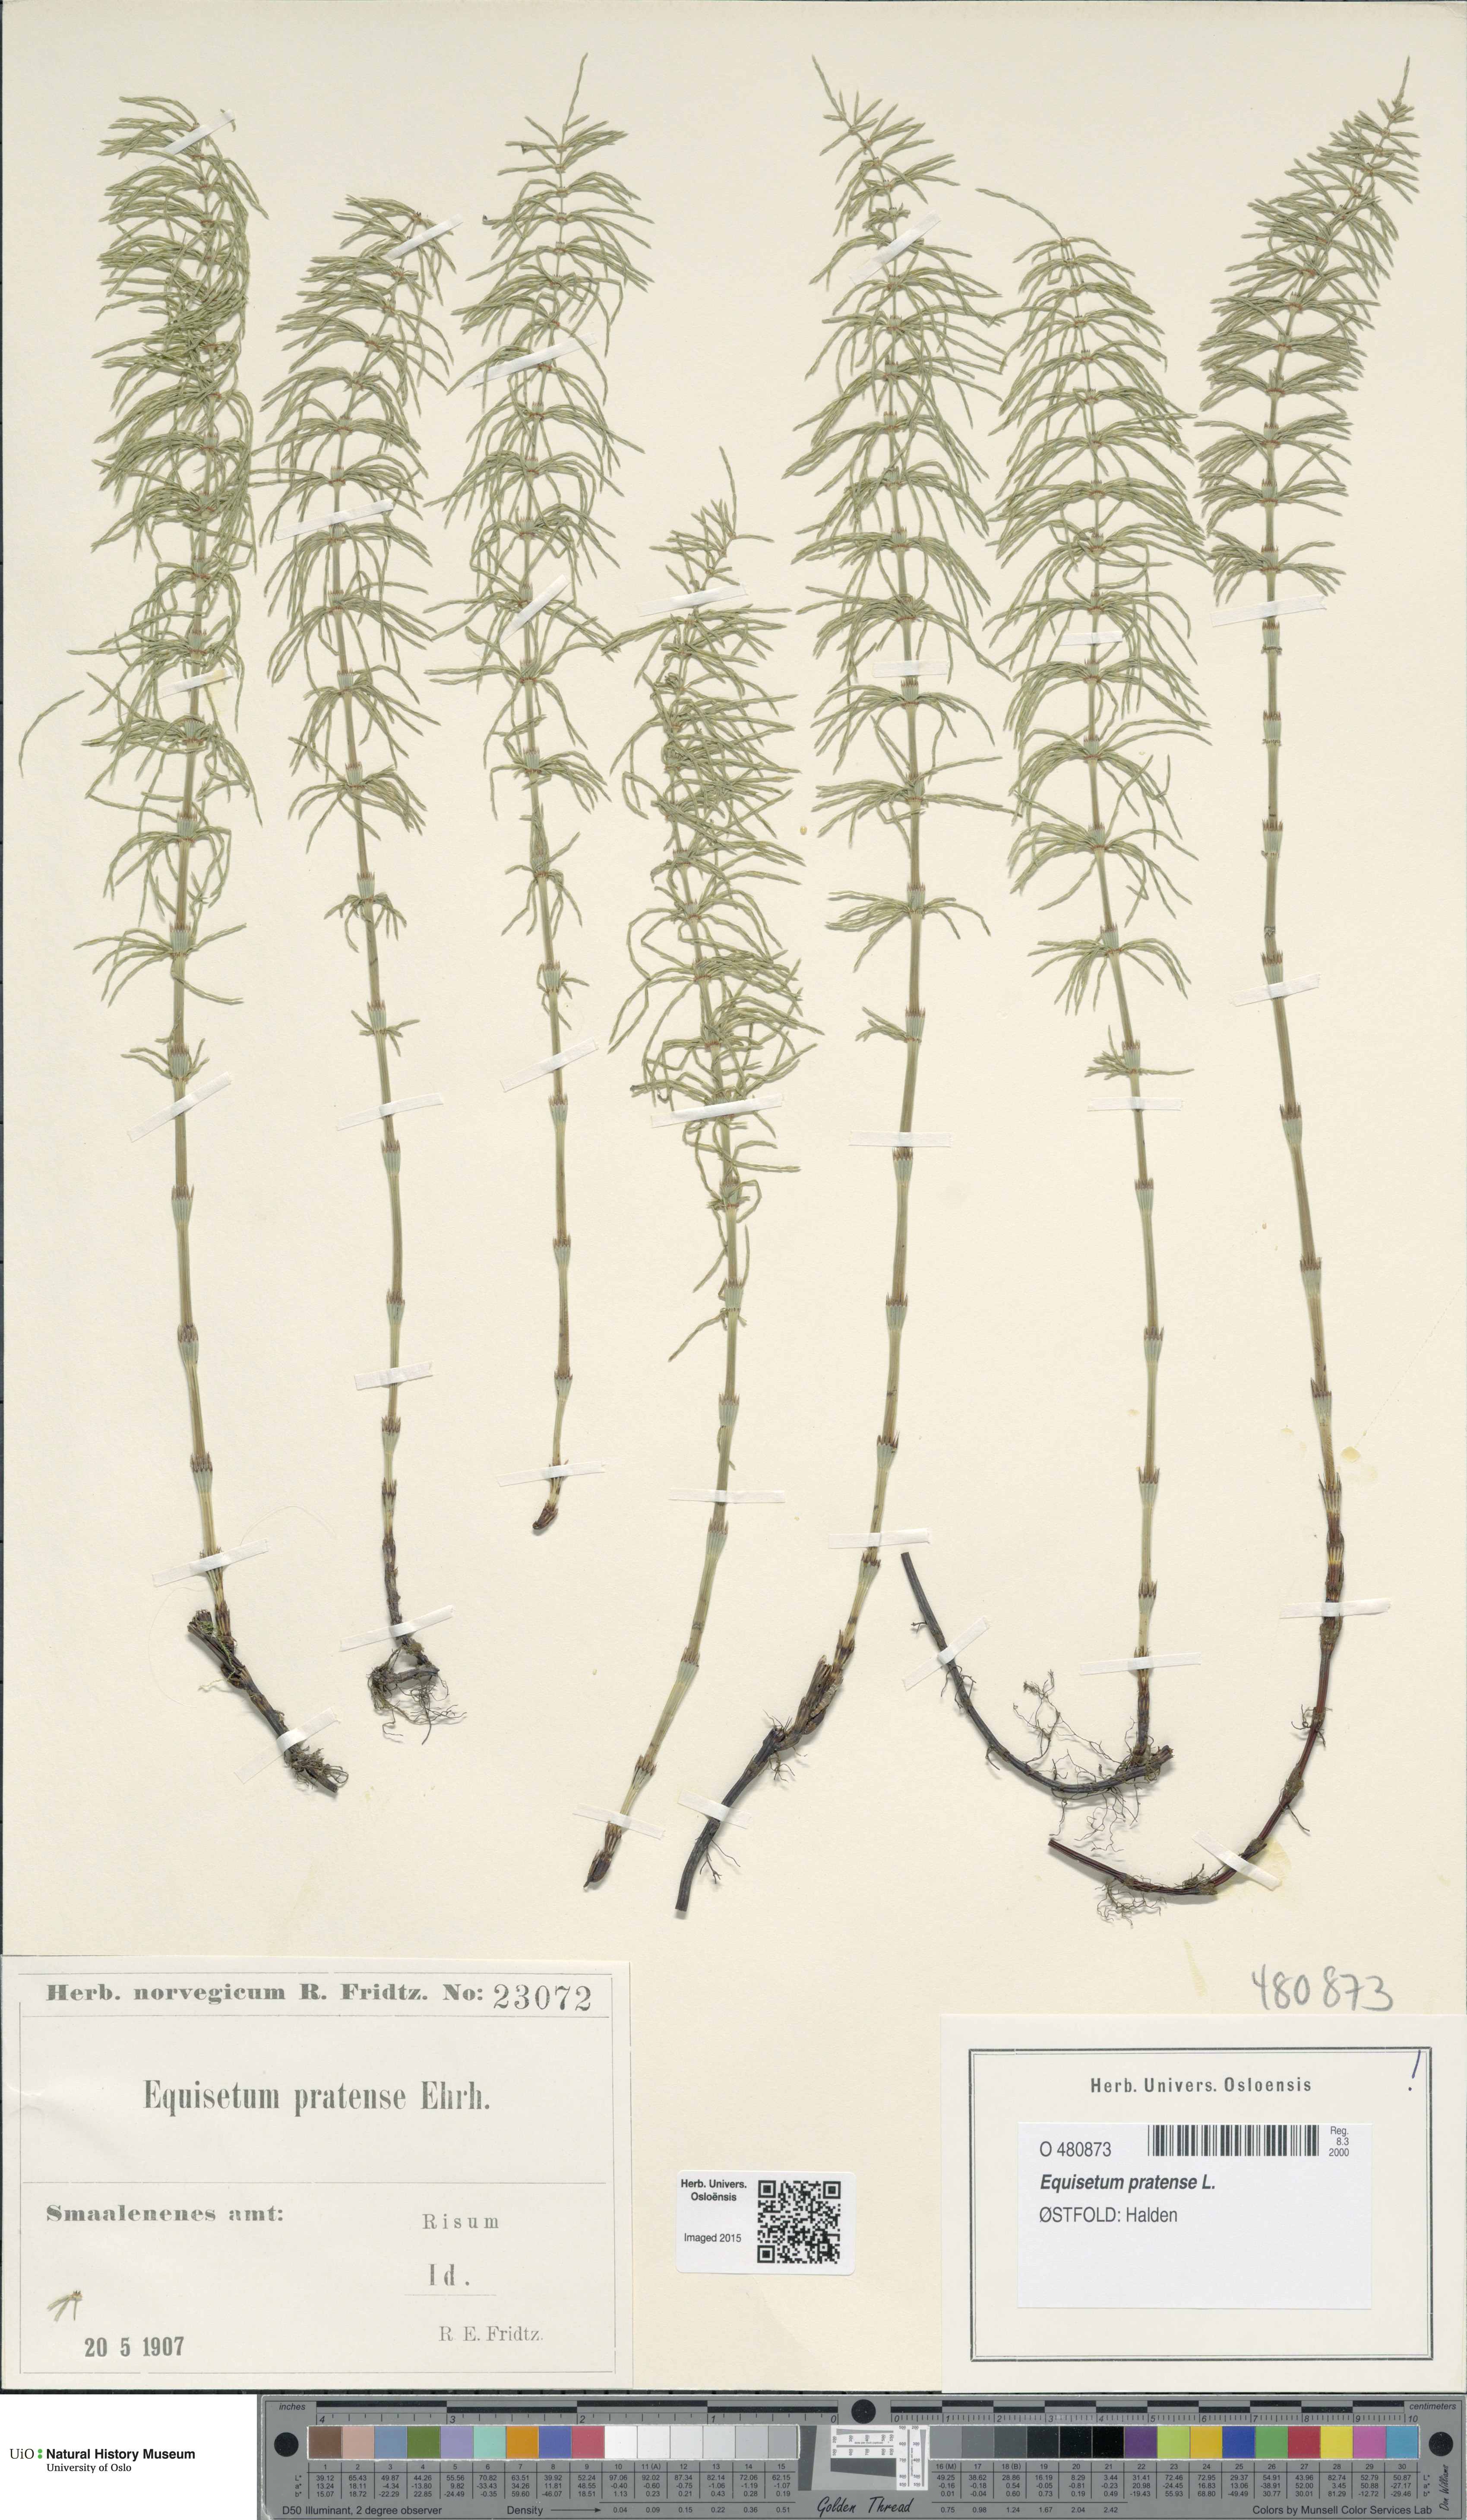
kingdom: Plantae
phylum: Tracheophyta
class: Polypodiopsida
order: Equisetales
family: Equisetaceae
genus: Equisetum
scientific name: Equisetum pratense
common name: Meadow horsetail
